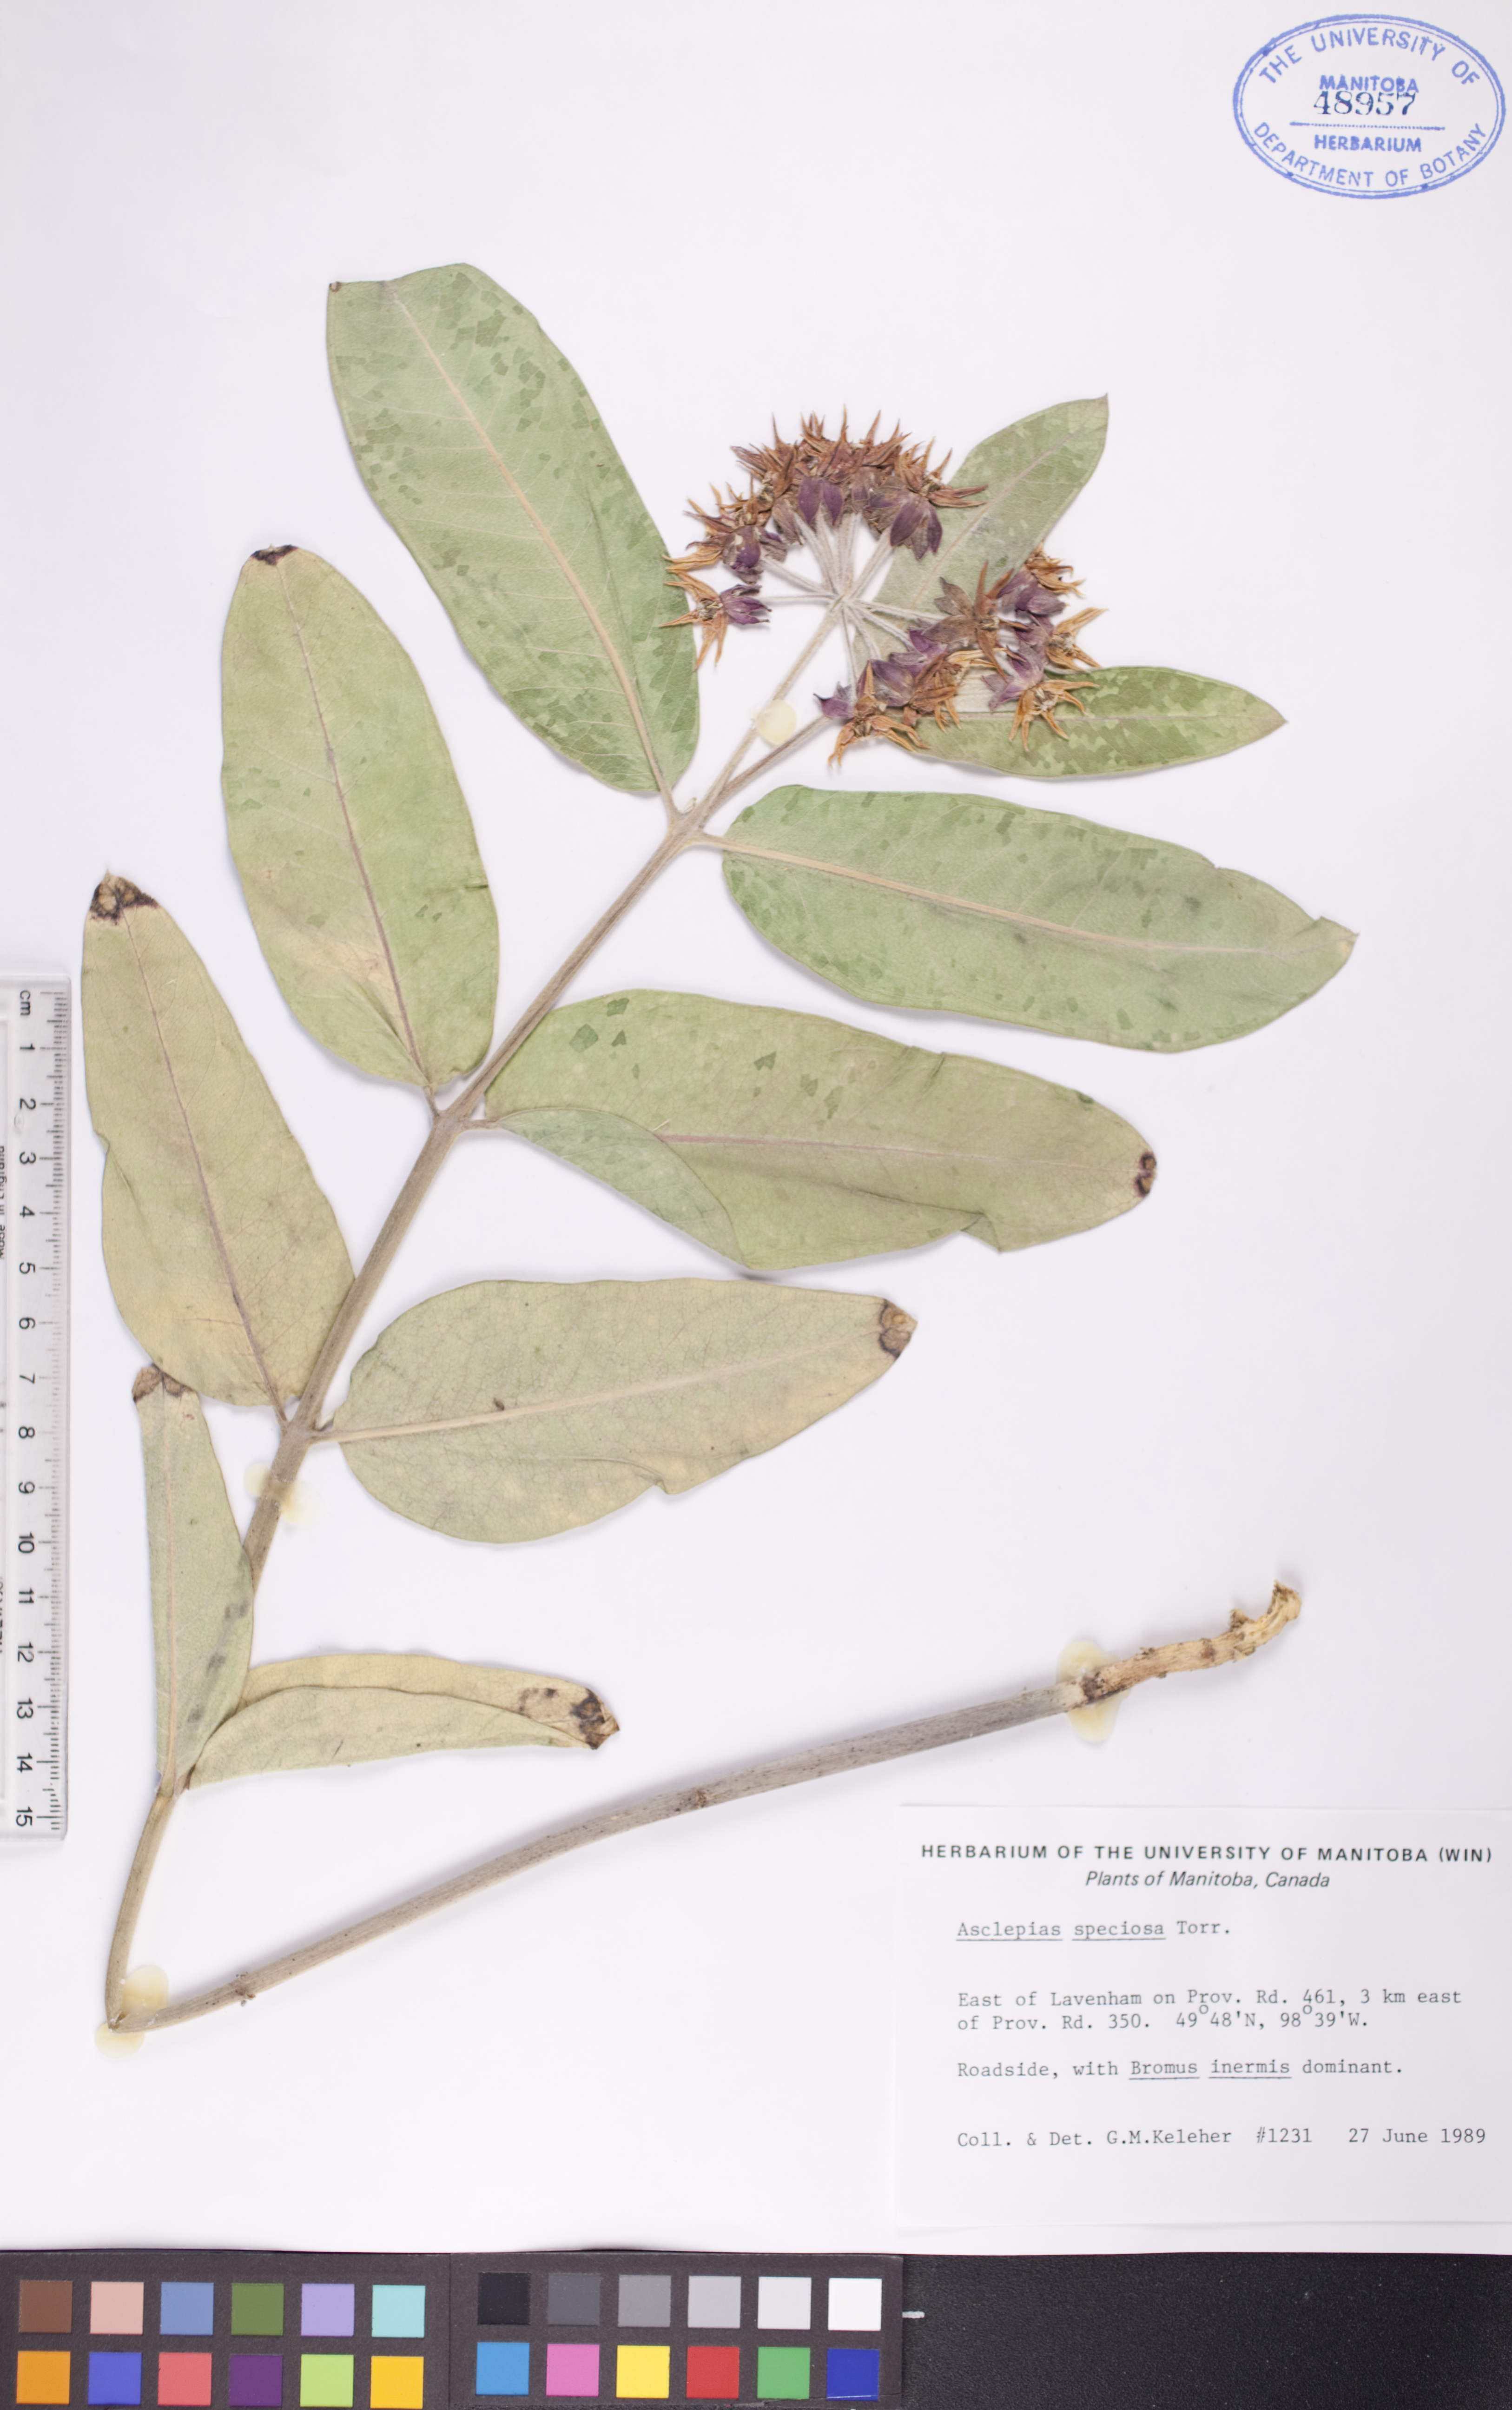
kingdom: Plantae
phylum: Tracheophyta
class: Magnoliopsida
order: Gentianales
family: Apocynaceae
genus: Asclepias
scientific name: Asclepias speciosa
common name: Showy milkweed
